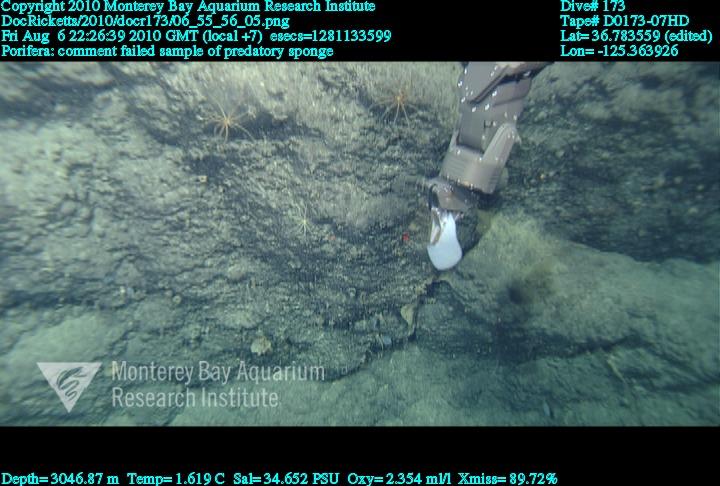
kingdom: Animalia
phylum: Porifera
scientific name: Porifera
